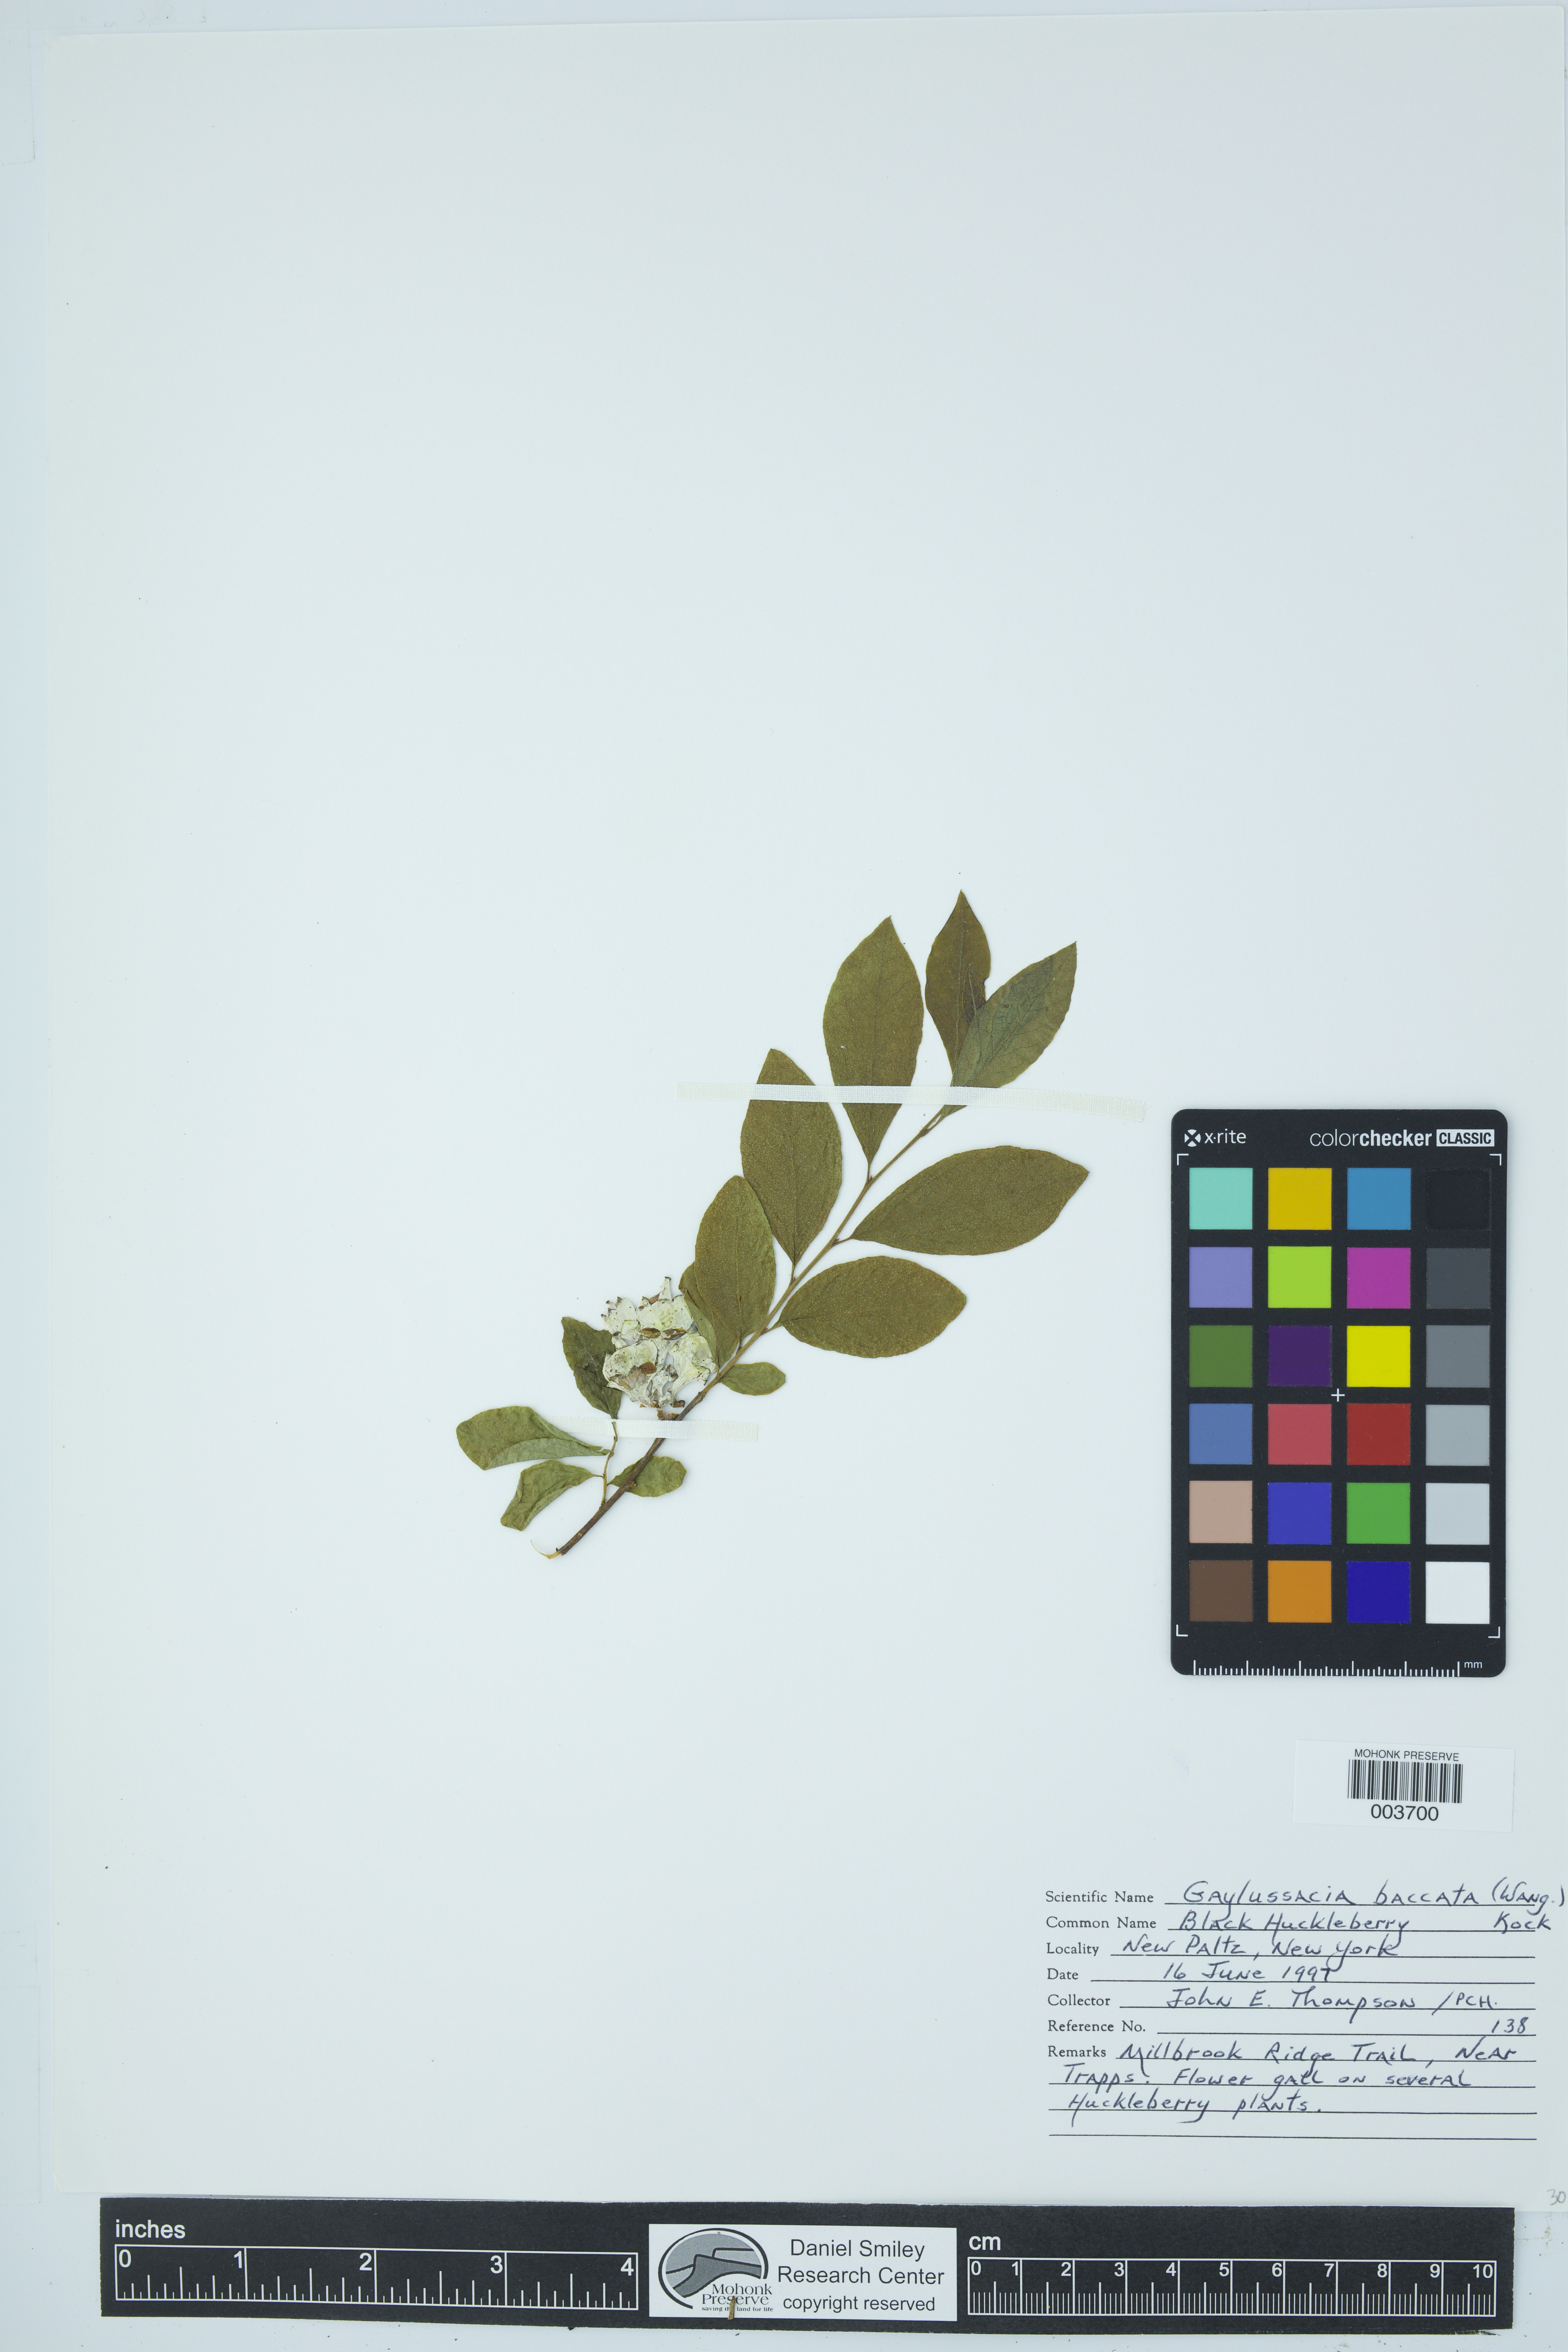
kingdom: Plantae
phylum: Tracheophyta
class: Magnoliopsida
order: Ericales
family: Ericaceae
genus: Gaylussacia
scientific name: Gaylussacia baccata
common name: Black huckleberry
